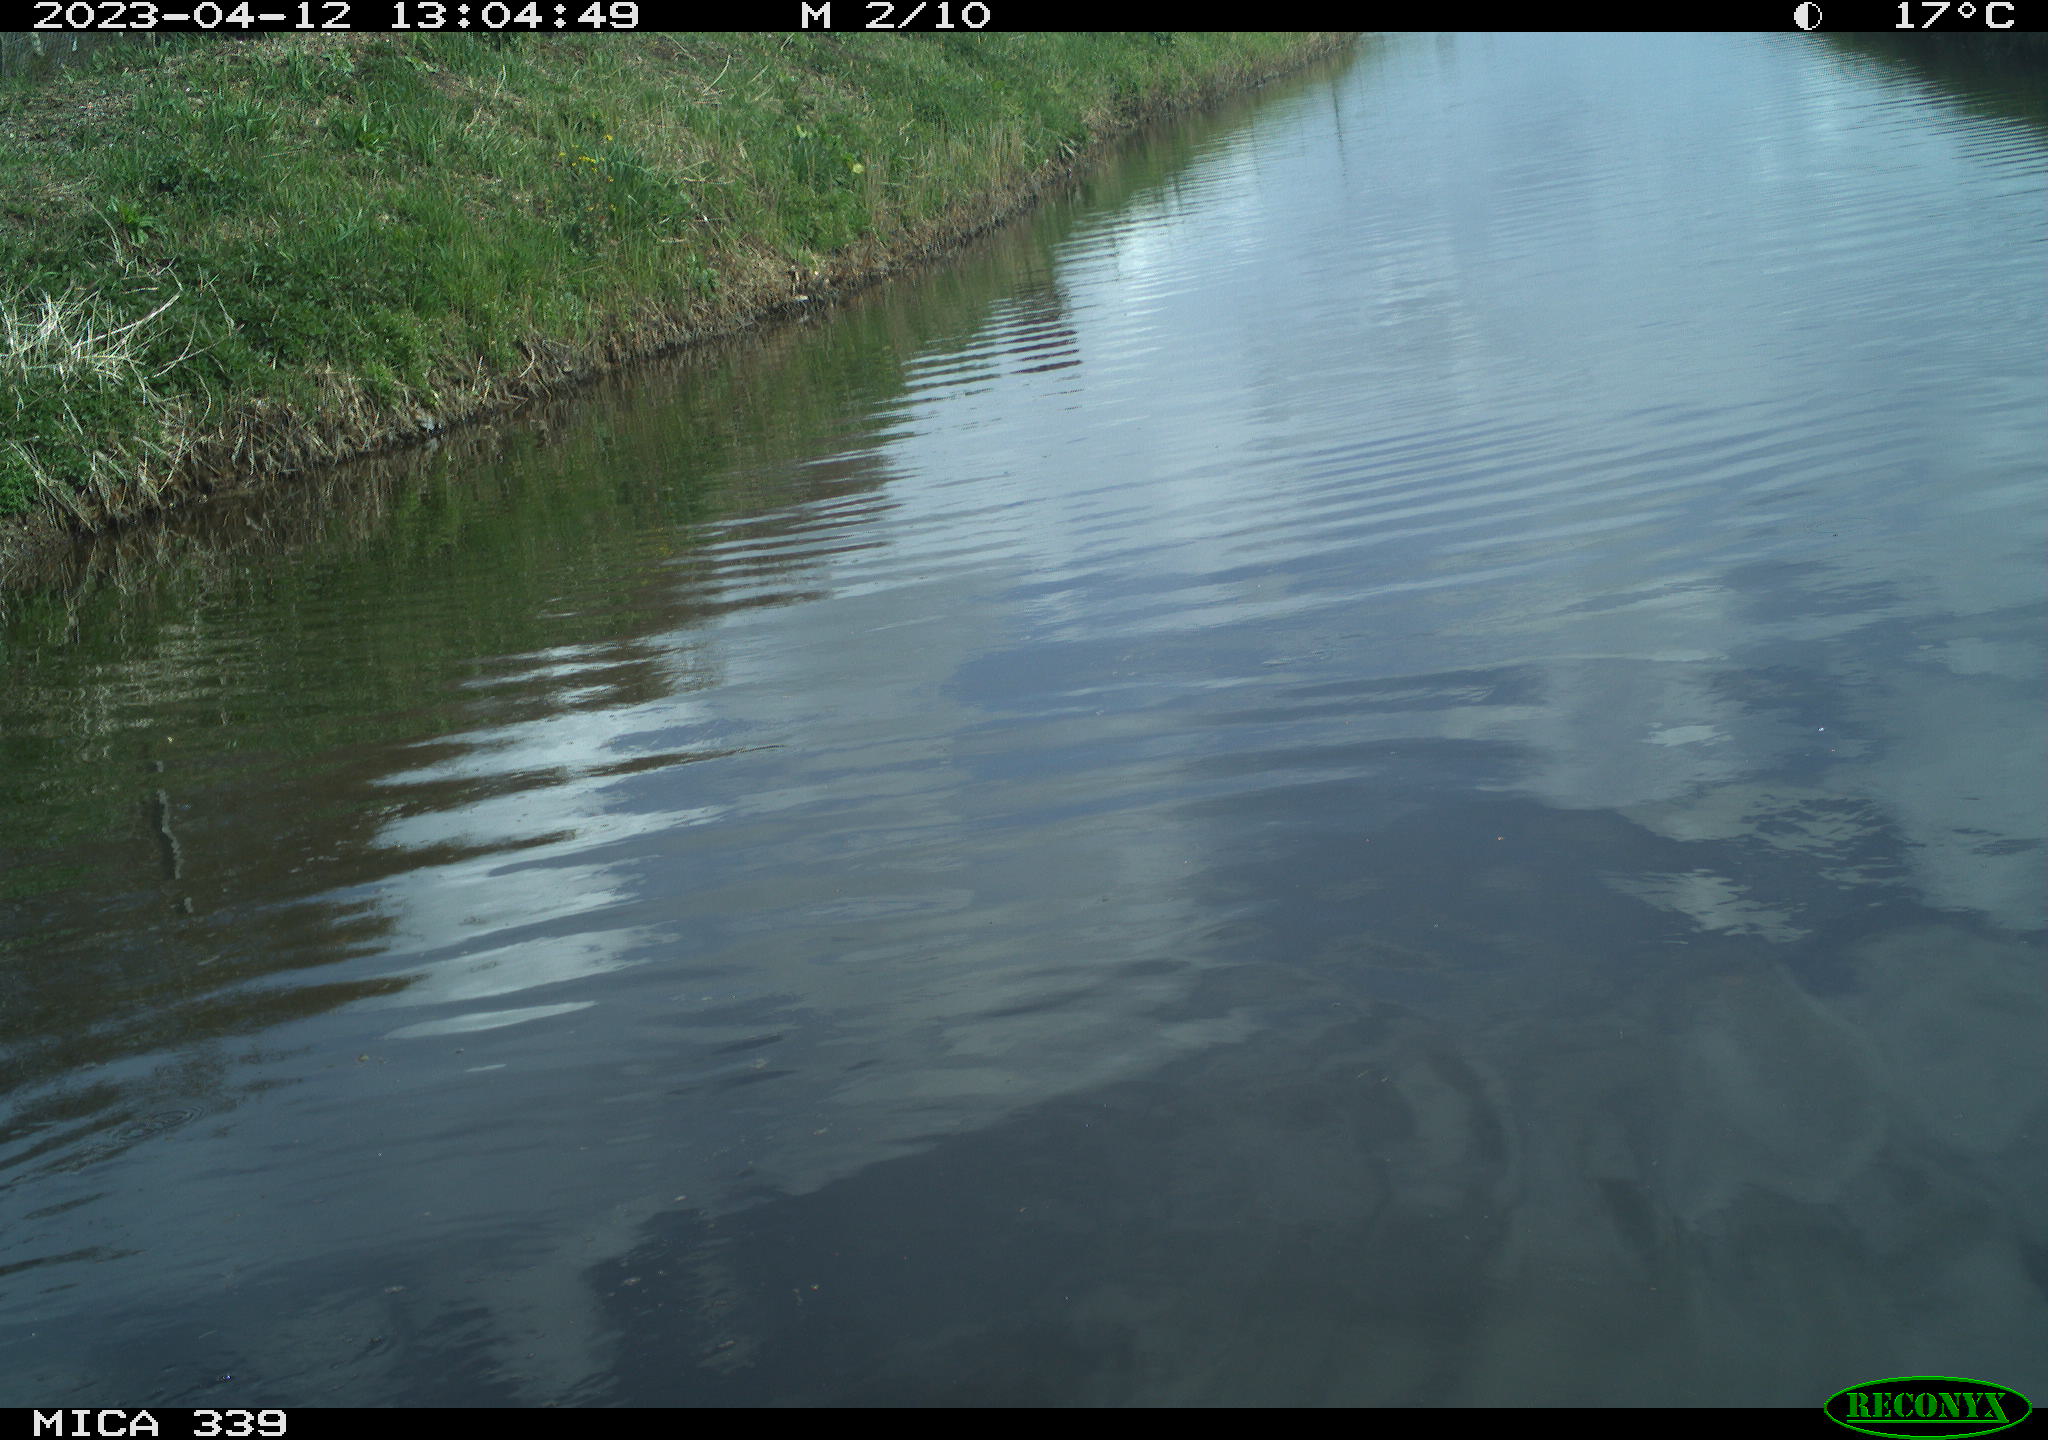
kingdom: Animalia
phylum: Chordata
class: Aves
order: Pelecaniformes
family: Ardeidae
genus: Ardea
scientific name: Ardea
